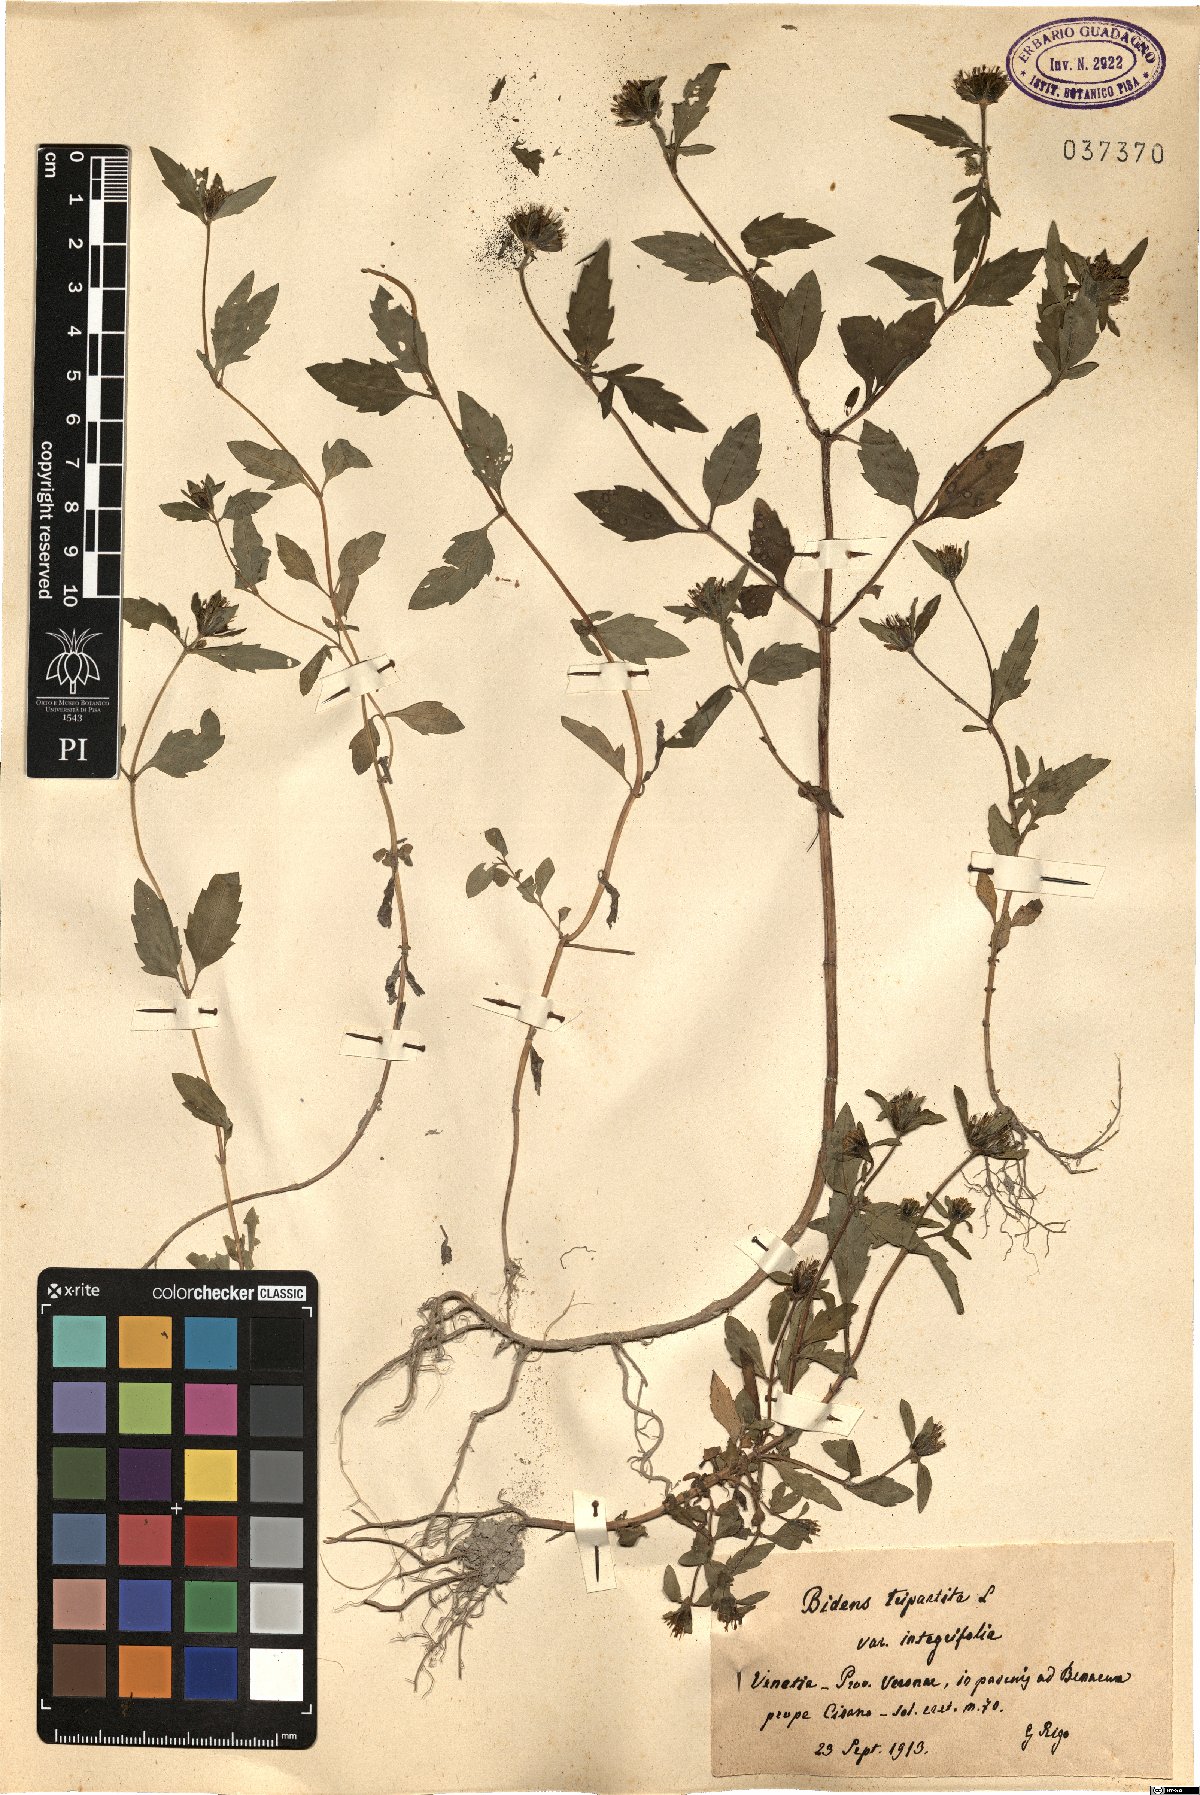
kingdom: Plantae
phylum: Tracheophyta
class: Magnoliopsida
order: Asterales
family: Asteraceae
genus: Bidens
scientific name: Bidens tripartita
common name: Trifid bur-marigold
